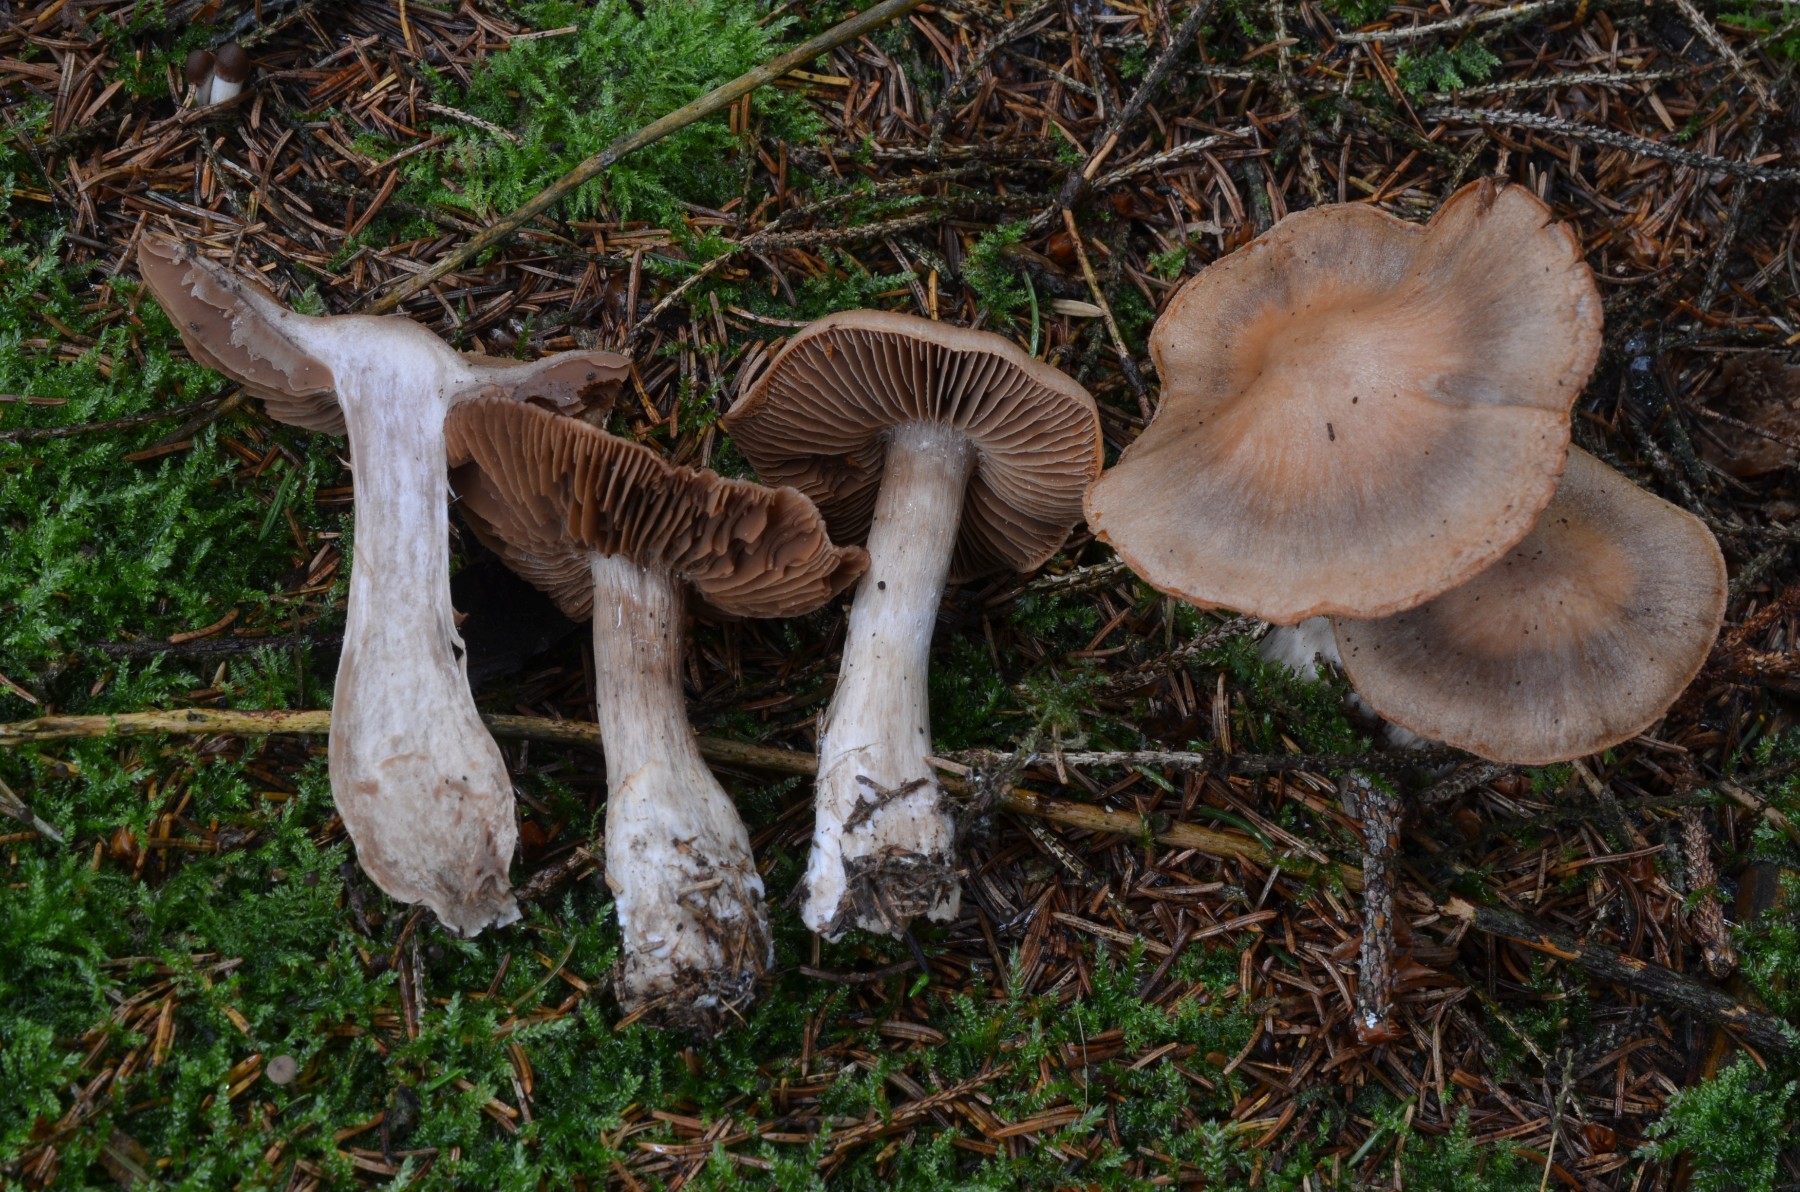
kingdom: Fungi
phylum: Basidiomycota
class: Agaricomycetes
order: Agaricales
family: Cortinariaceae
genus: Cortinarius
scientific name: Cortinarius malachius
